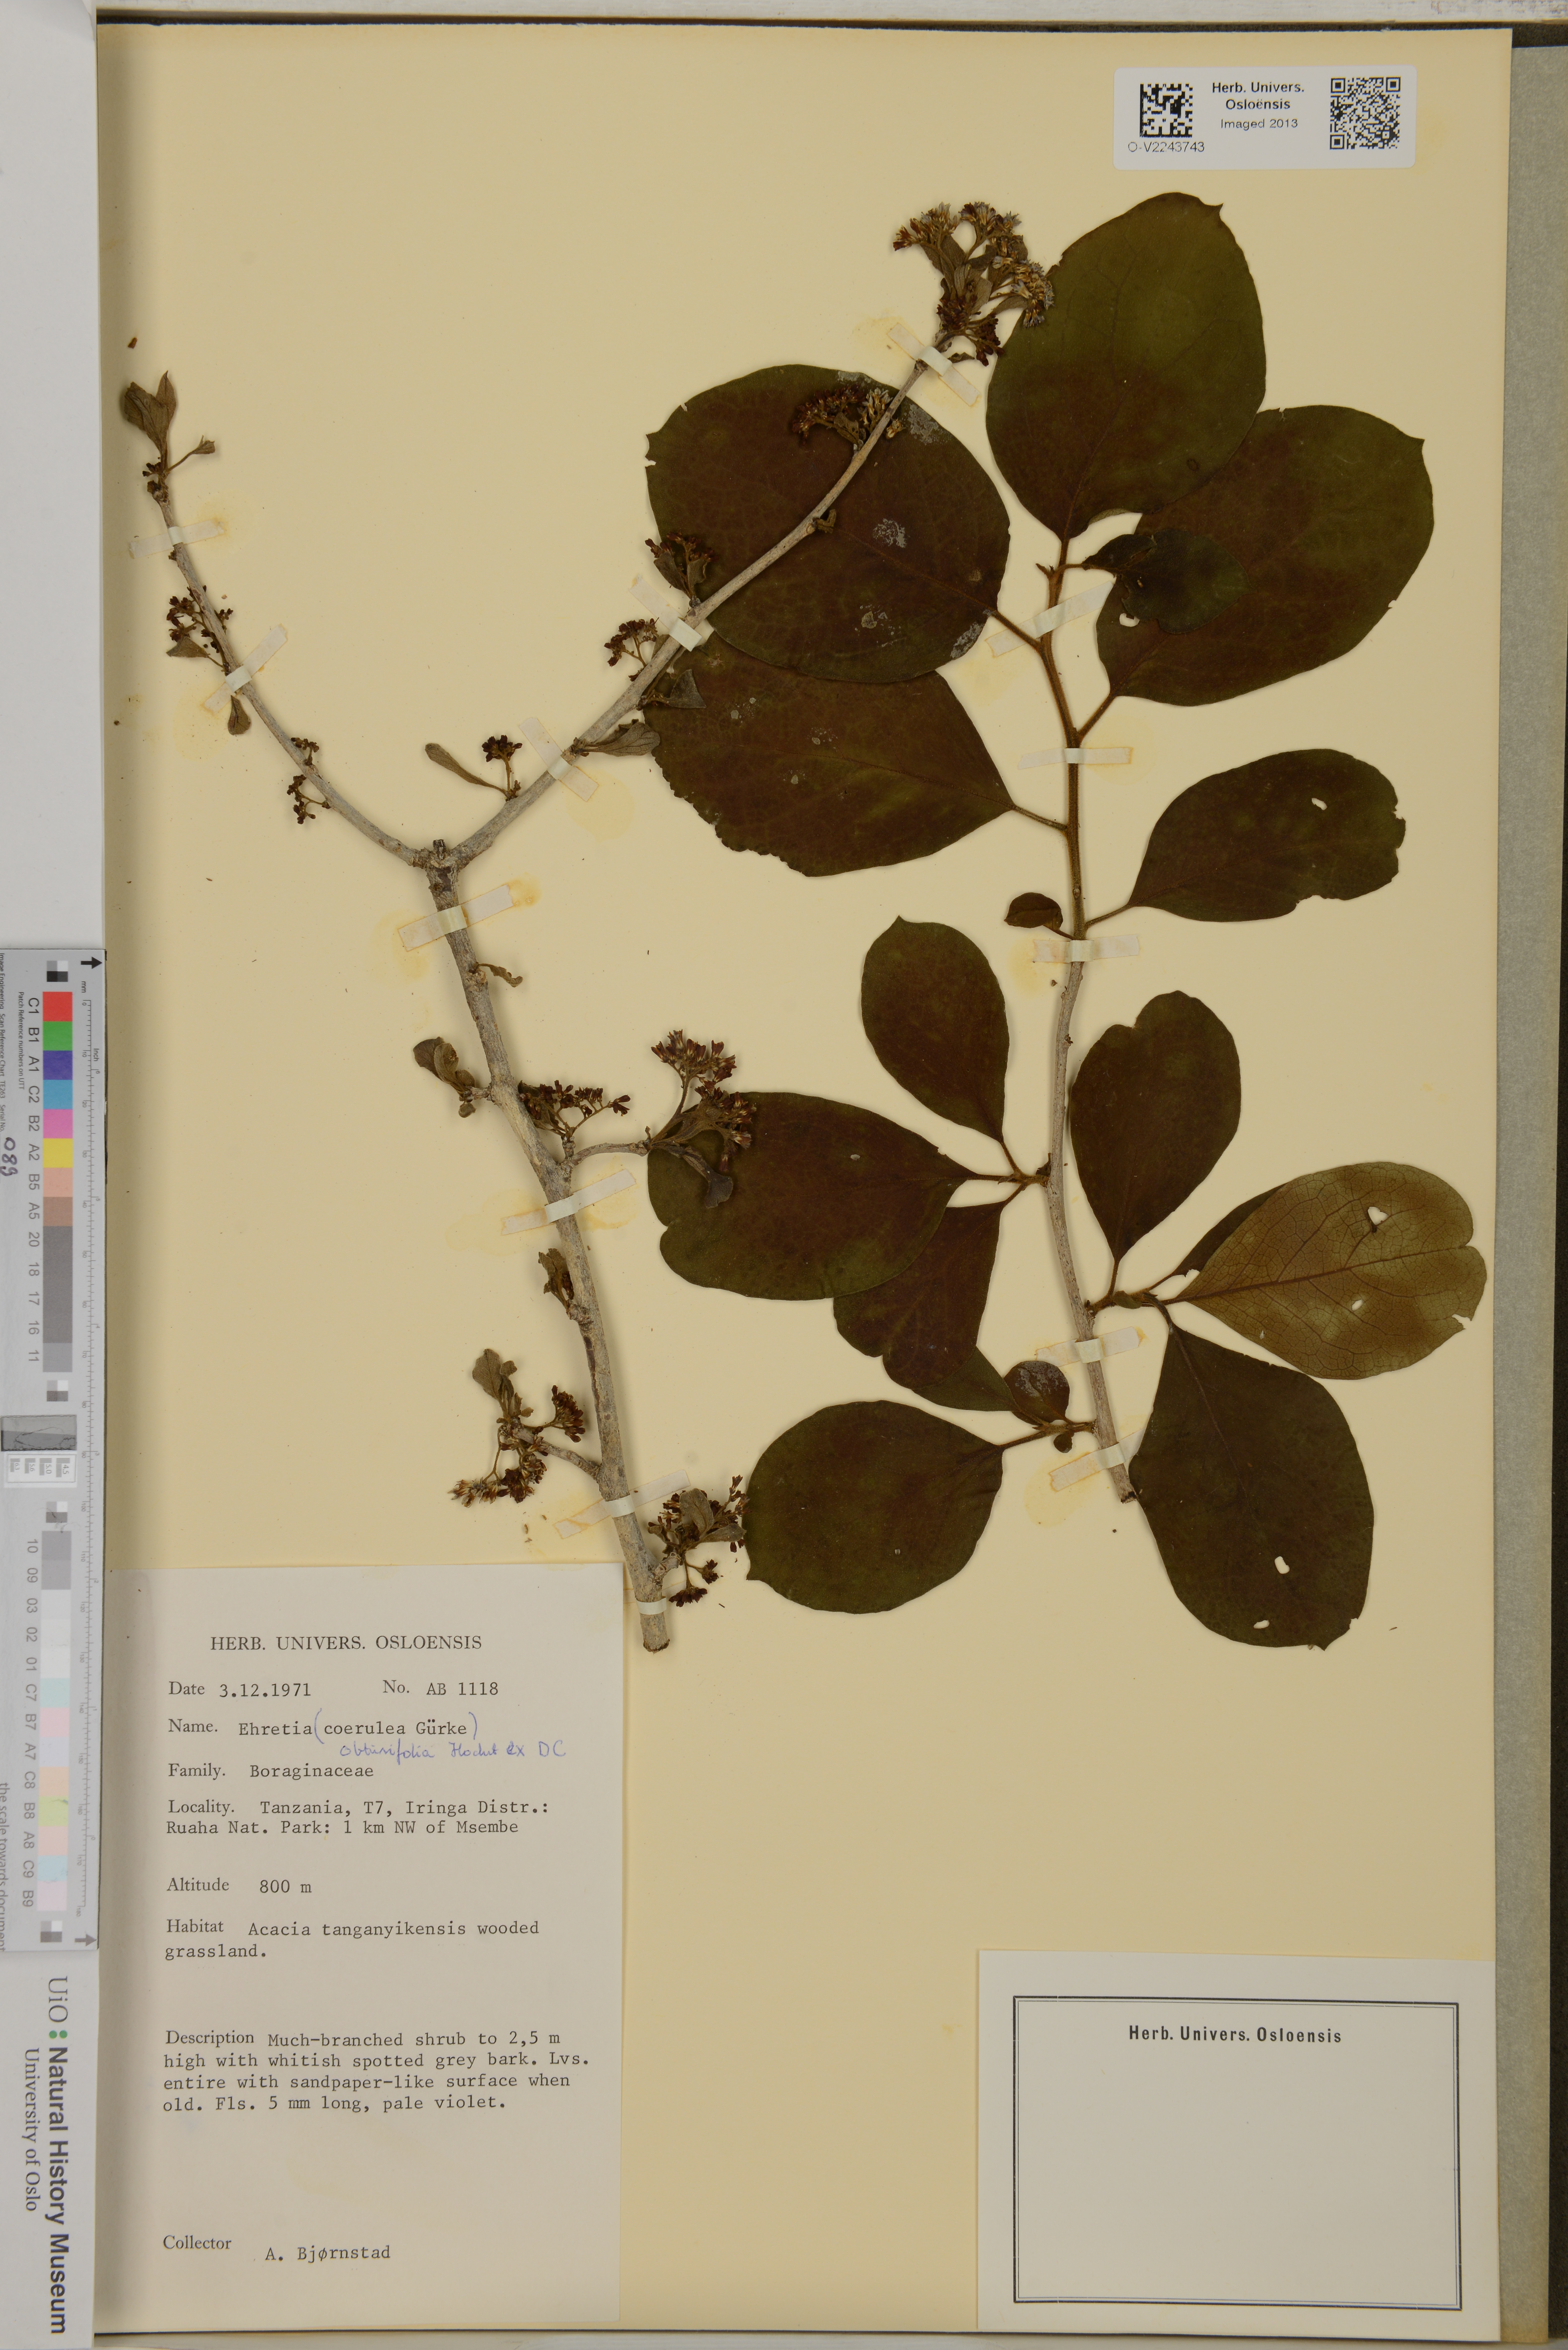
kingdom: Plantae
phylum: Tracheophyta
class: Magnoliopsida
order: Boraginales
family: Ehretiaceae
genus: Ehretia
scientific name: Ehretia obtusifolia
